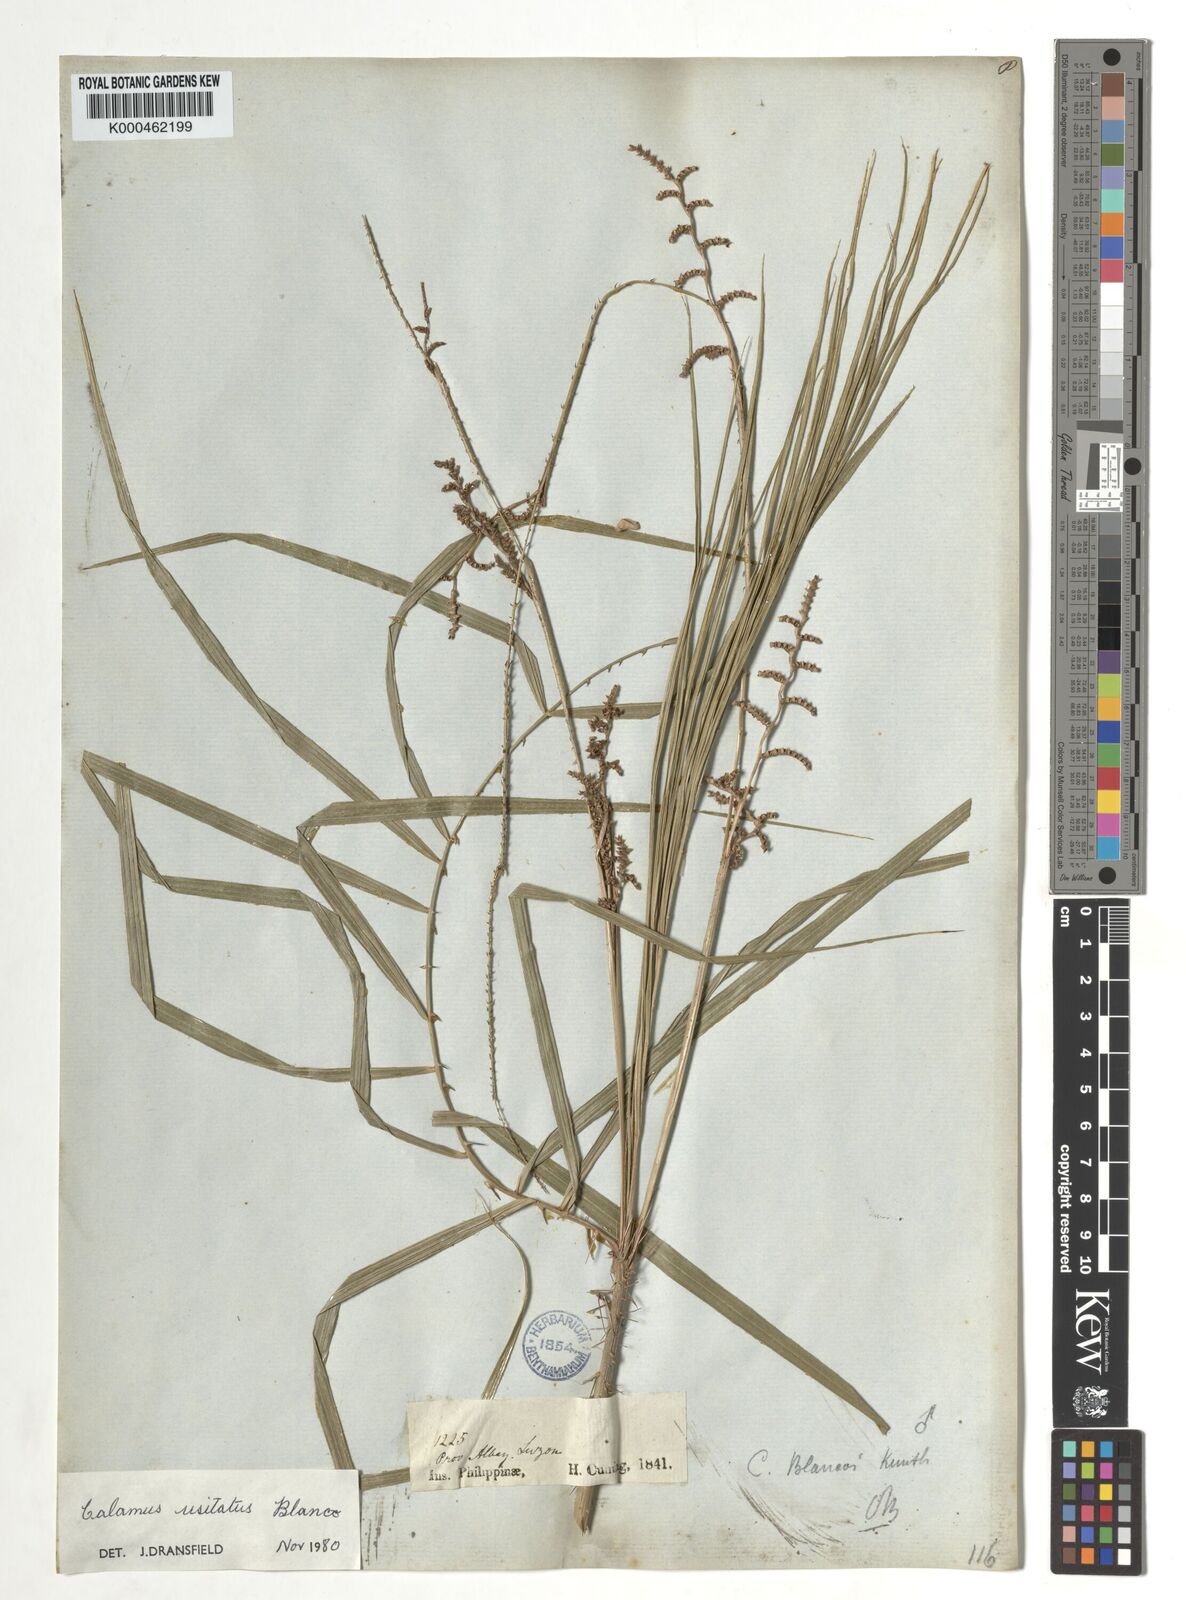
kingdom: Plantae
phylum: Tracheophyta
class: Liliopsida
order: Arecales
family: Arecaceae
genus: Calamus
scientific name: Calamus usitatus
